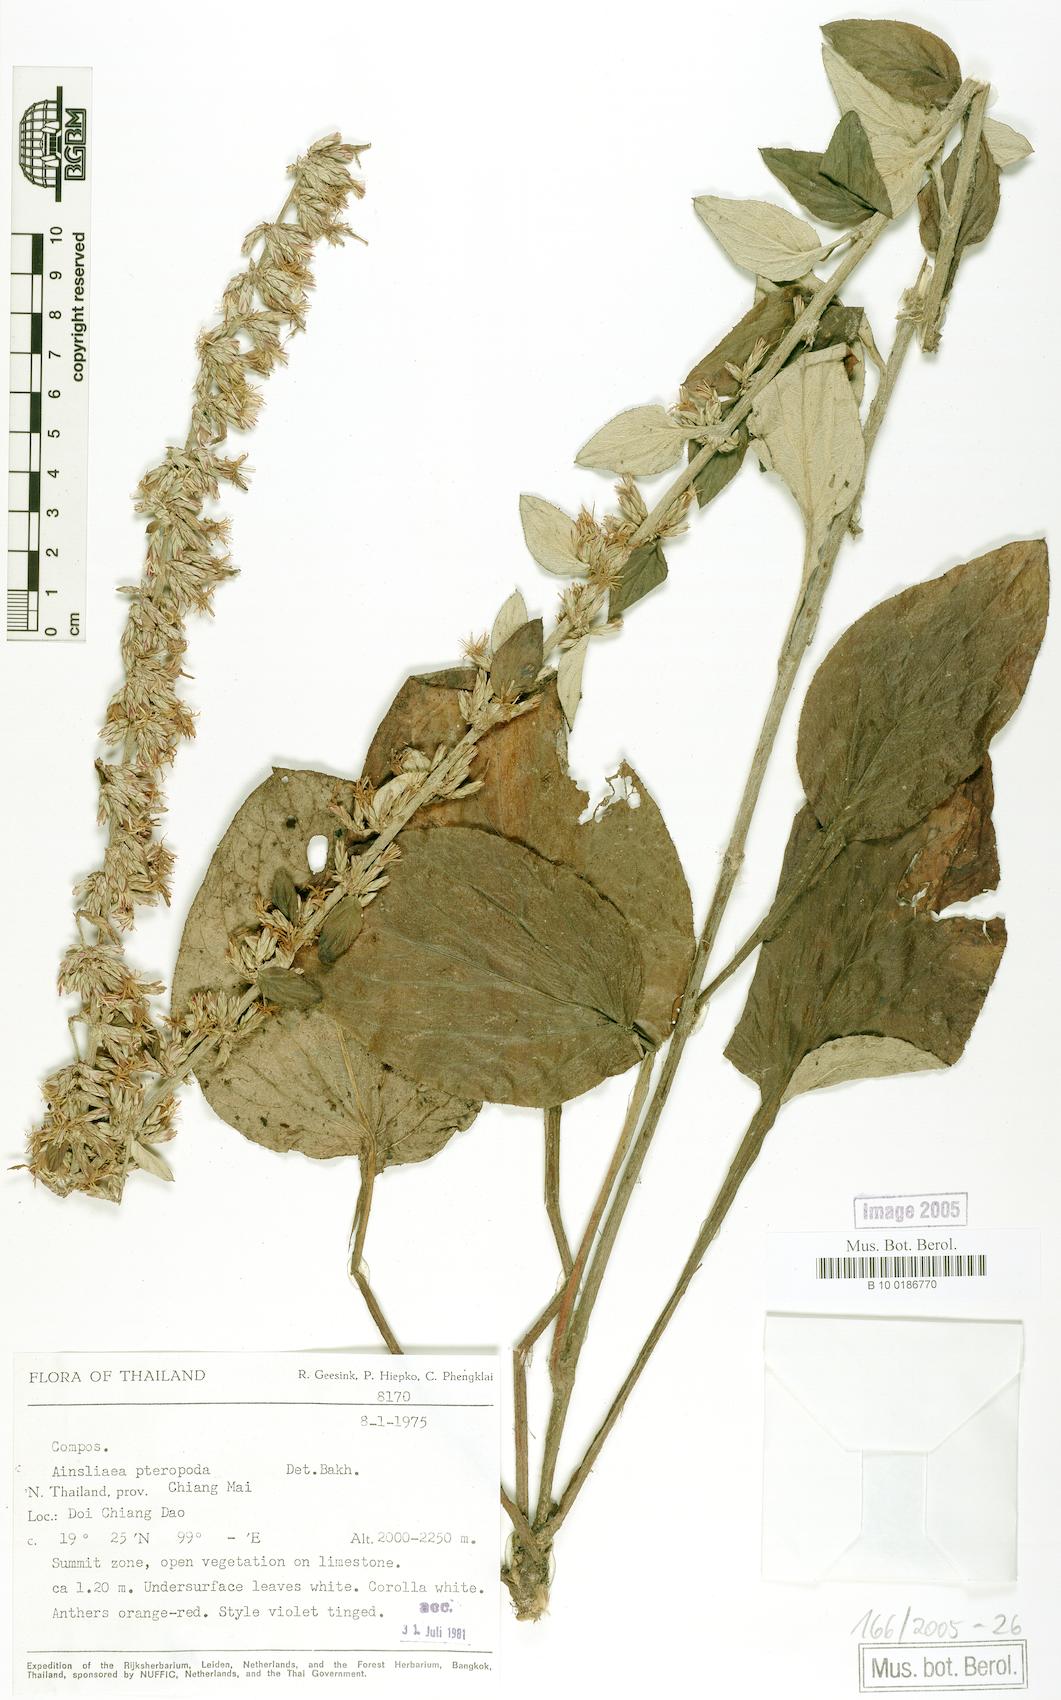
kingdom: Plantae
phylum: Tracheophyta
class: Magnoliopsida
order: Asterales
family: Asteraceae
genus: Ainsliaea
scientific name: Ainsliaea latifolia
